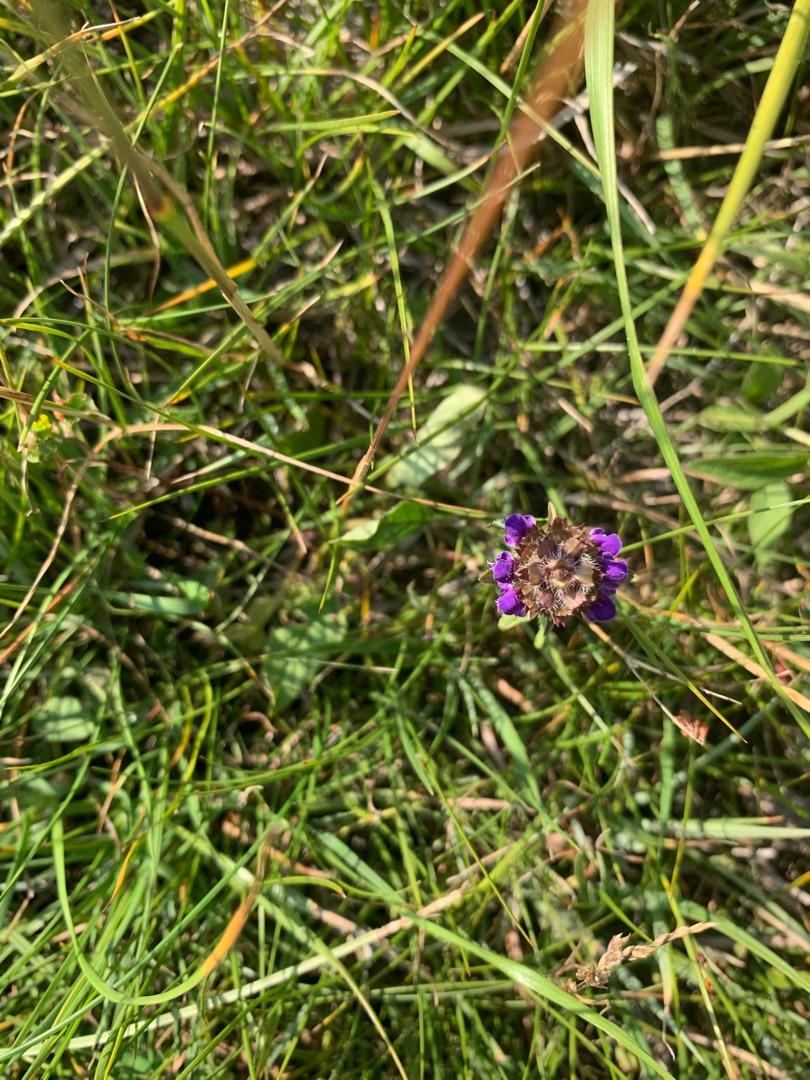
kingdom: Plantae
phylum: Tracheophyta
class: Magnoliopsida
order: Lamiales
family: Lamiaceae
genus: Prunella
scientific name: Prunella vulgaris
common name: Almindelig brunelle
